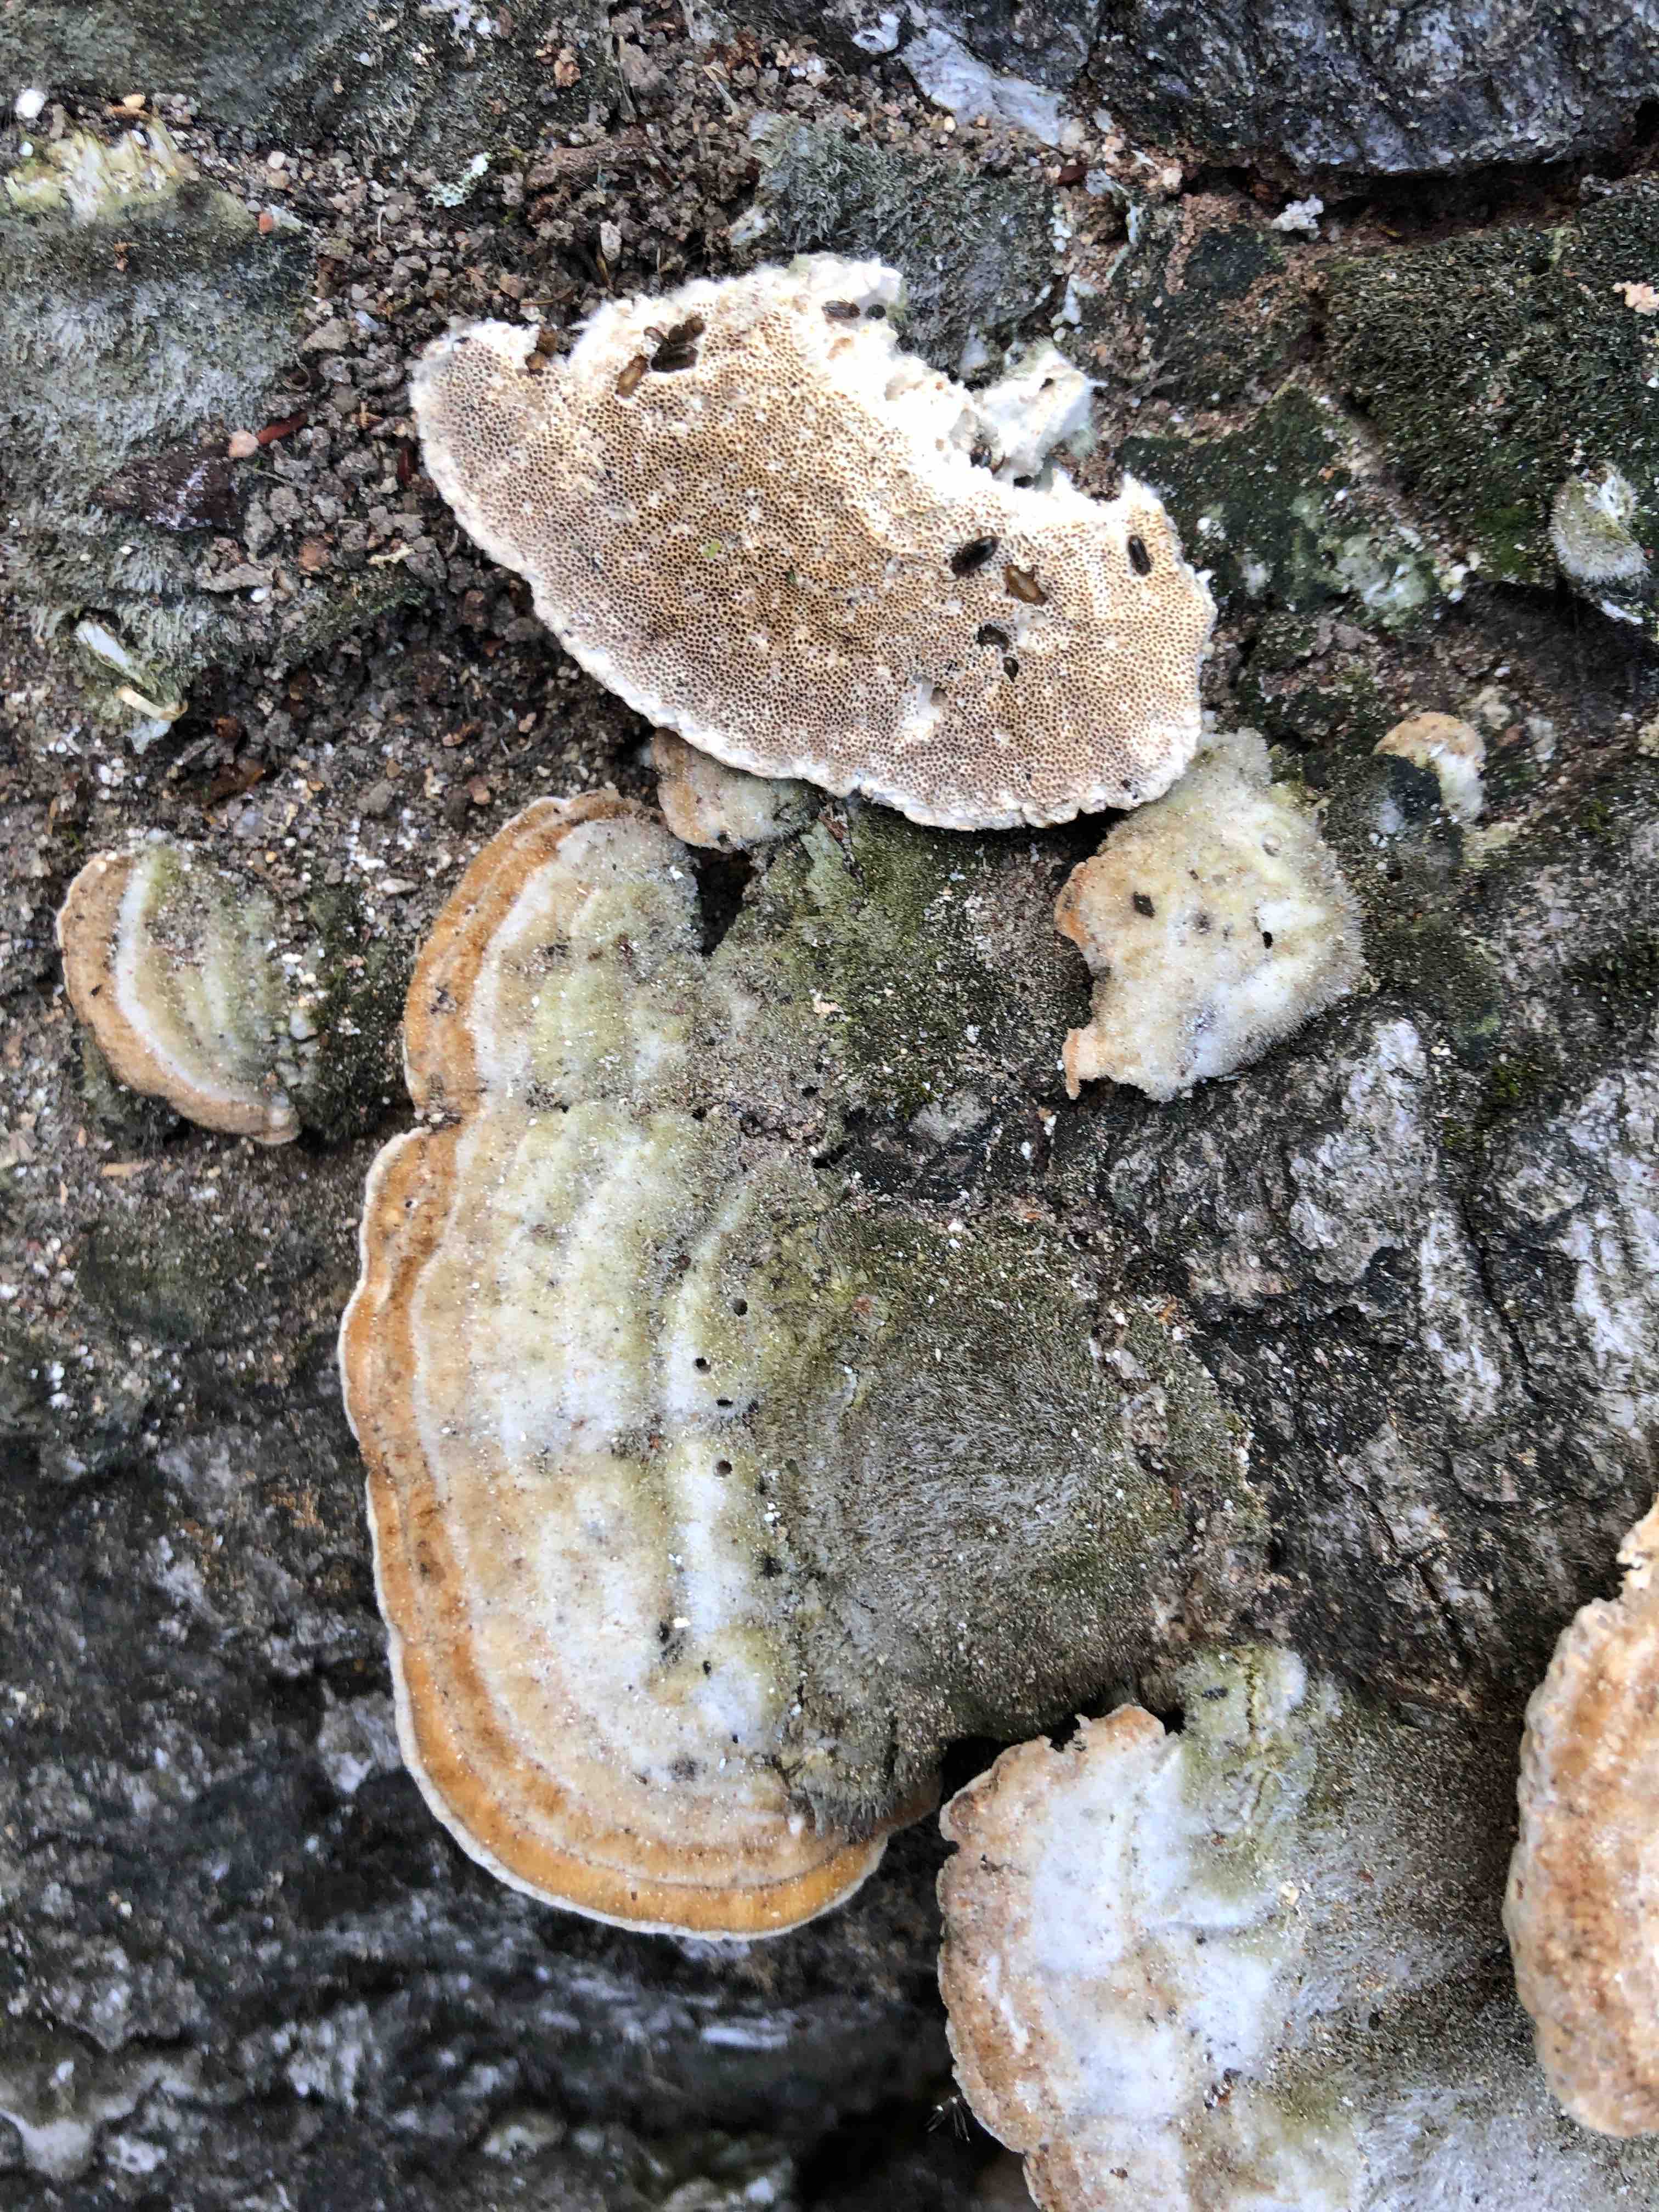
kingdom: Fungi
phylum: Basidiomycota
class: Agaricomycetes
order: Polyporales
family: Polyporaceae
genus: Trametes
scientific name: Trametes hirsuta
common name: håret læderporesvamp
